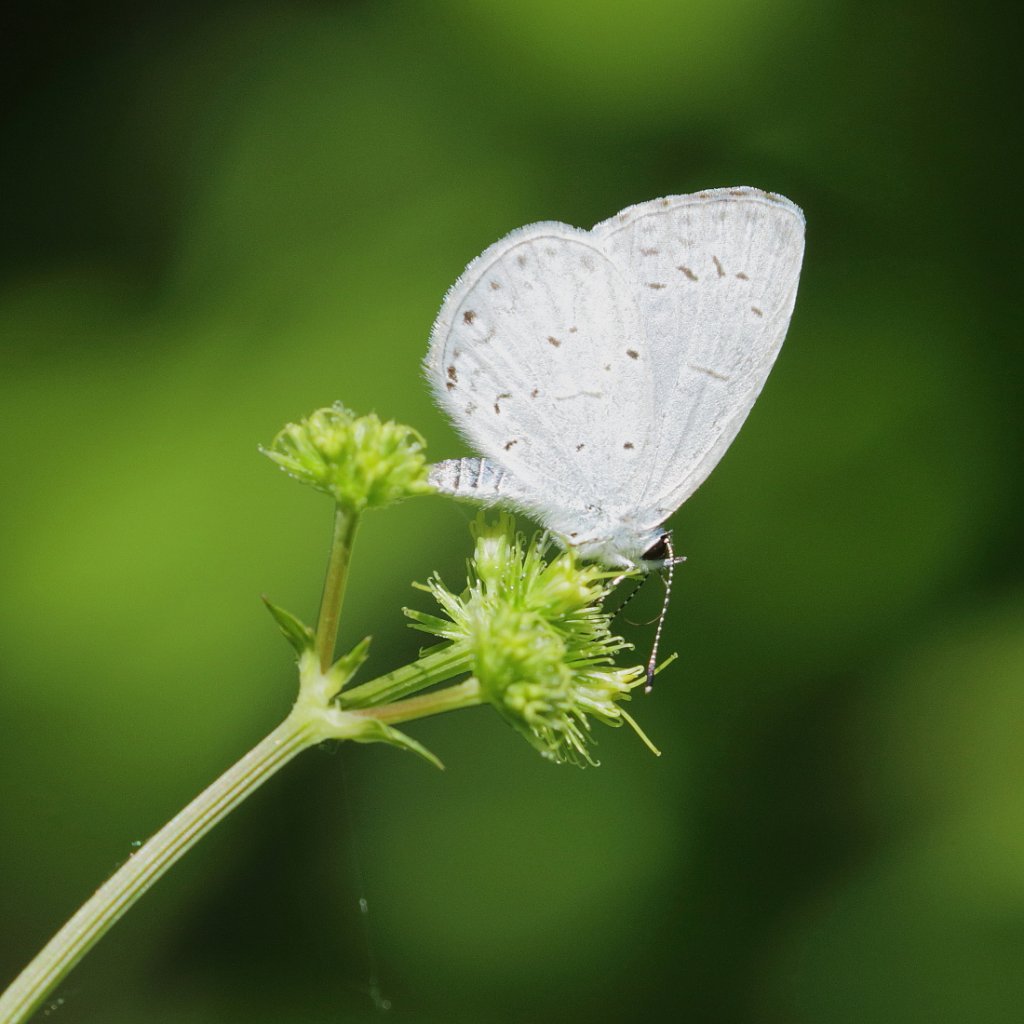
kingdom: Animalia
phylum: Arthropoda
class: Insecta
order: Lepidoptera
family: Lycaenidae
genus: Cyaniris
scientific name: Cyaniris neglecta
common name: Summer Azure
